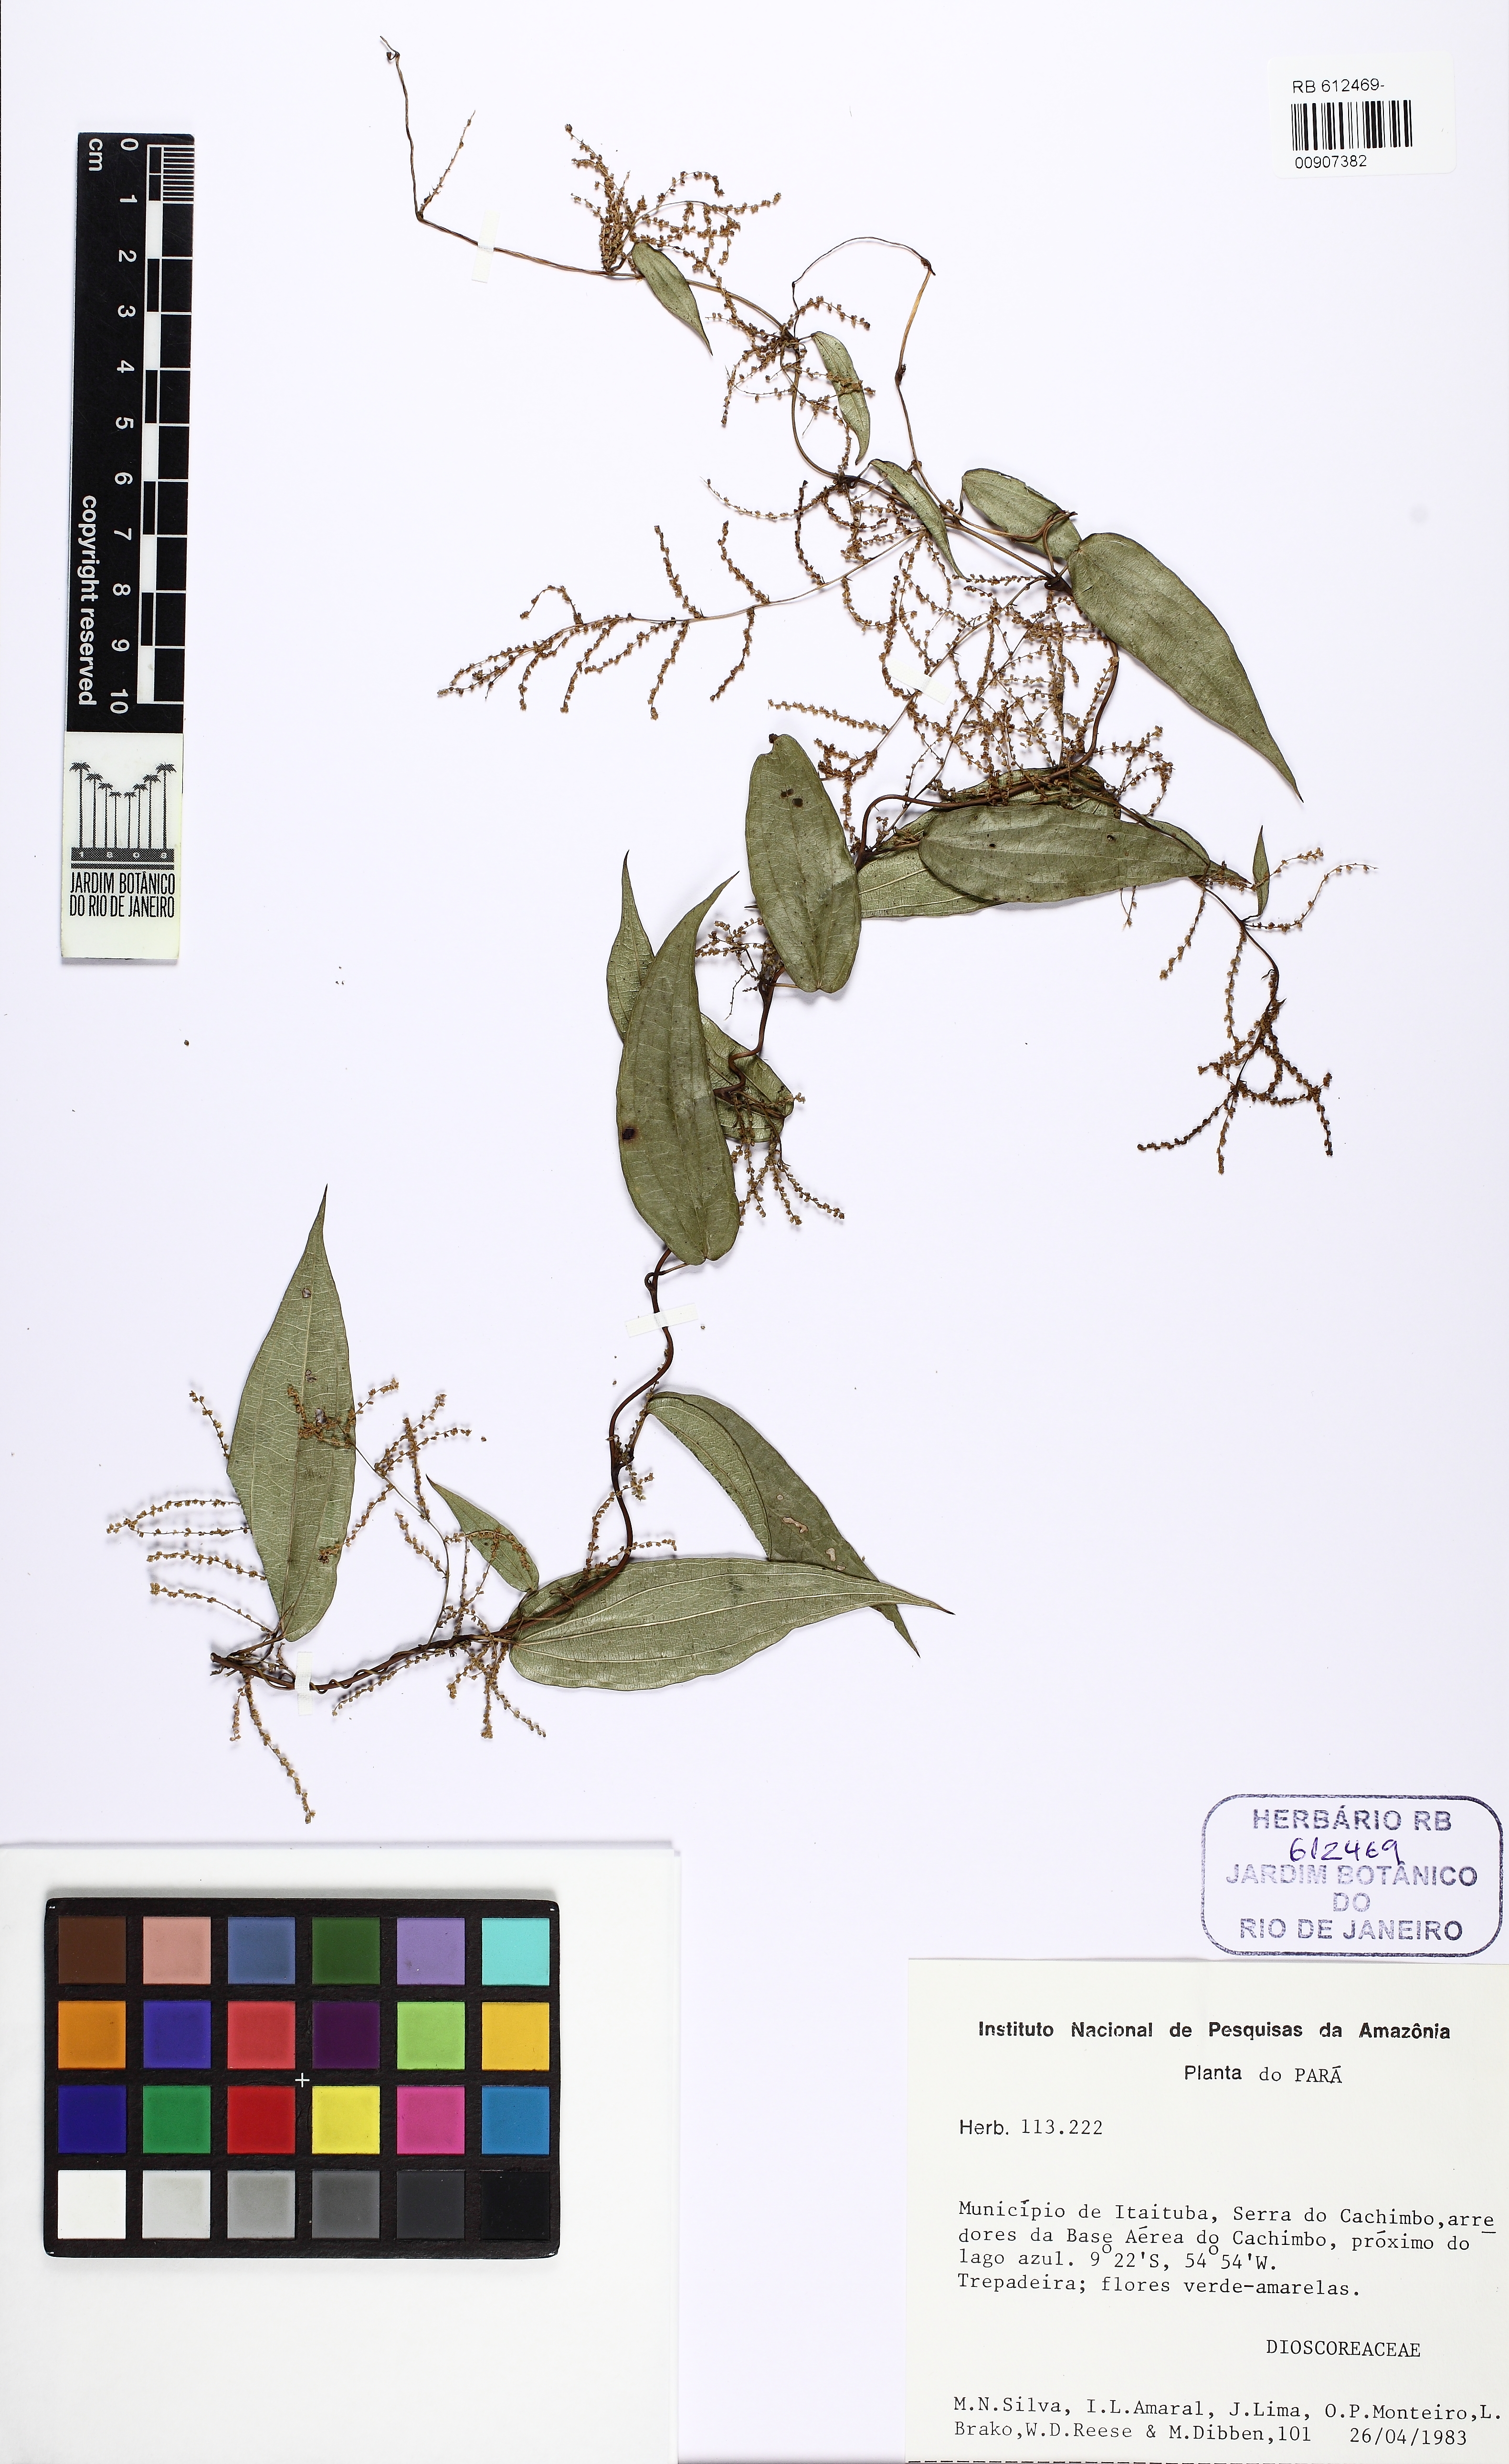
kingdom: Plantae
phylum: Tracheophyta
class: Liliopsida
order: Dioscoreales
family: Dioscoreaceae
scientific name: Dioscoreaceae
